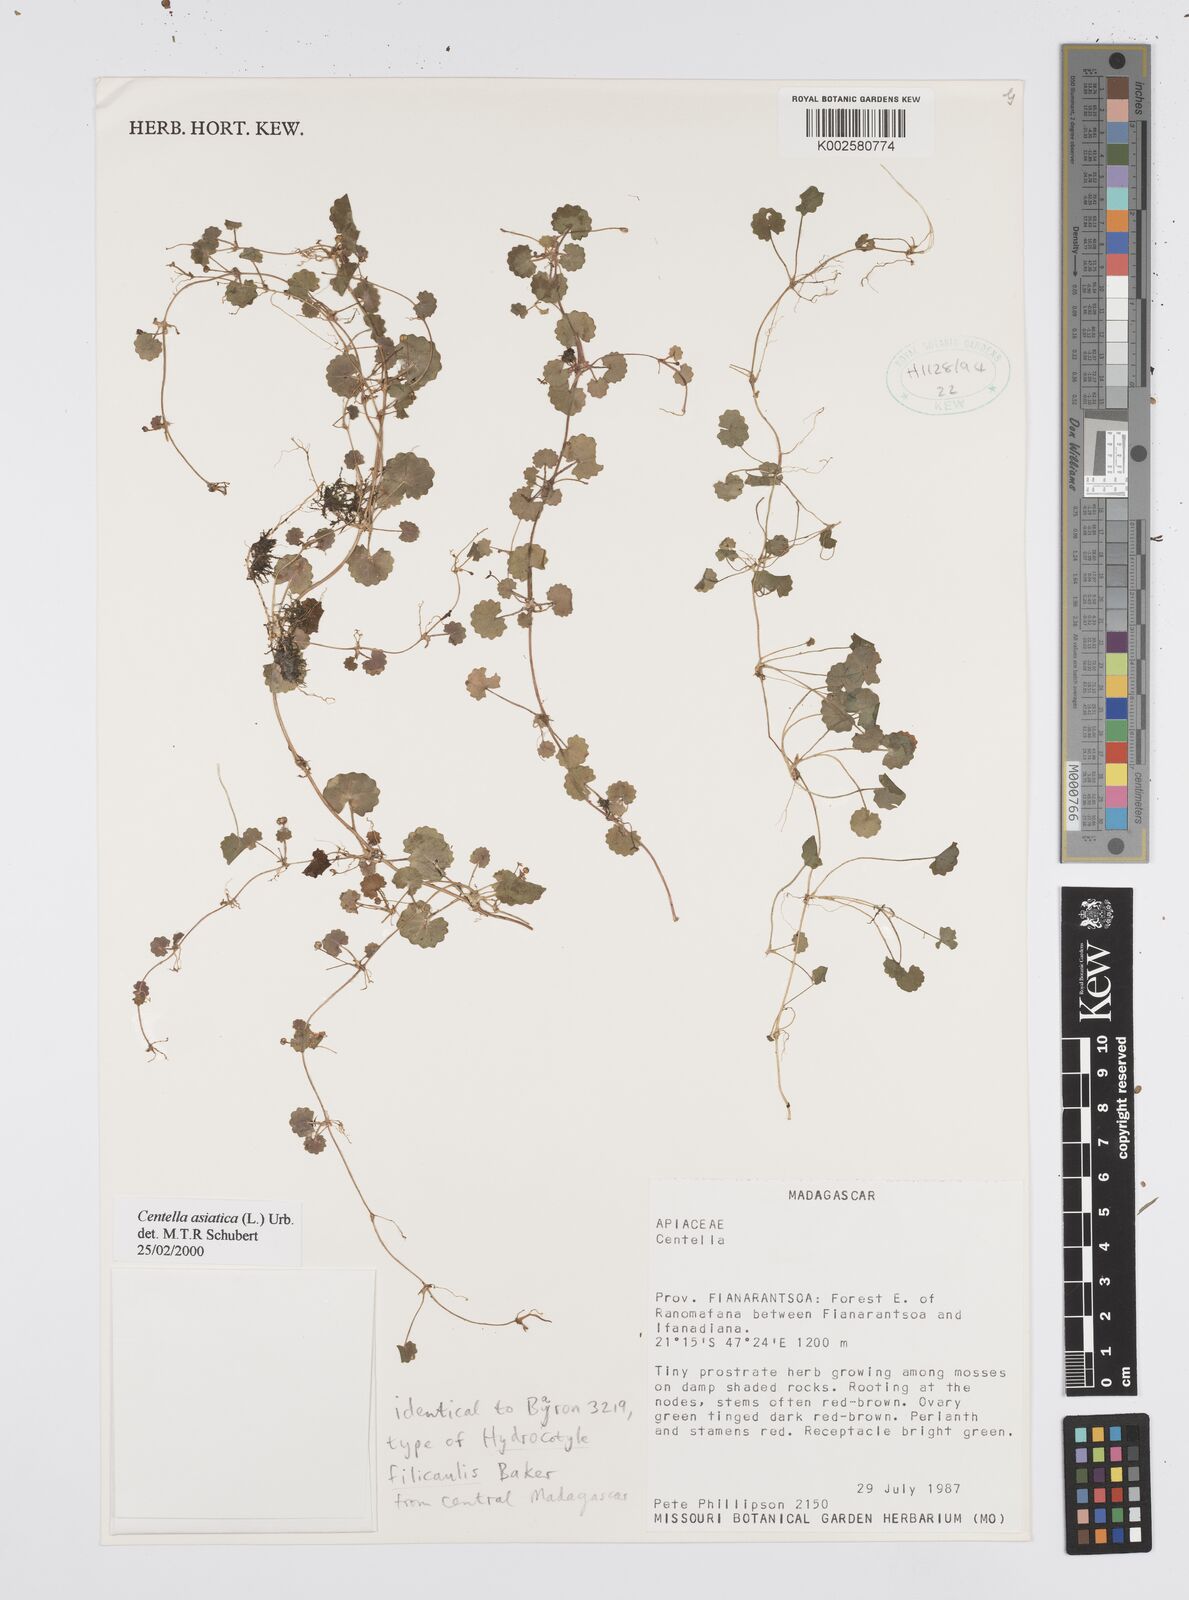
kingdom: Plantae
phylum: Tracheophyta
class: Magnoliopsida
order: Apiales
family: Apiaceae
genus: Centella
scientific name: Centella asiatica
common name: Spadeleaf
